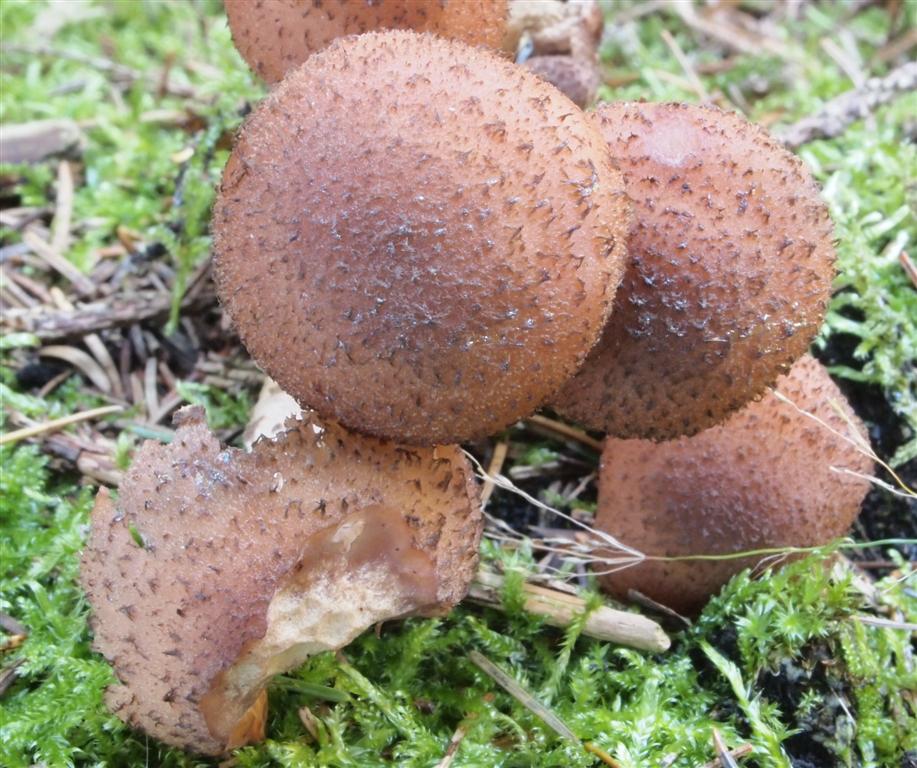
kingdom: Fungi
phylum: Basidiomycota
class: Agaricomycetes
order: Agaricales
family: Physalacriaceae
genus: Armillaria
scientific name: Armillaria ostoyae
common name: mørk honningsvamp
